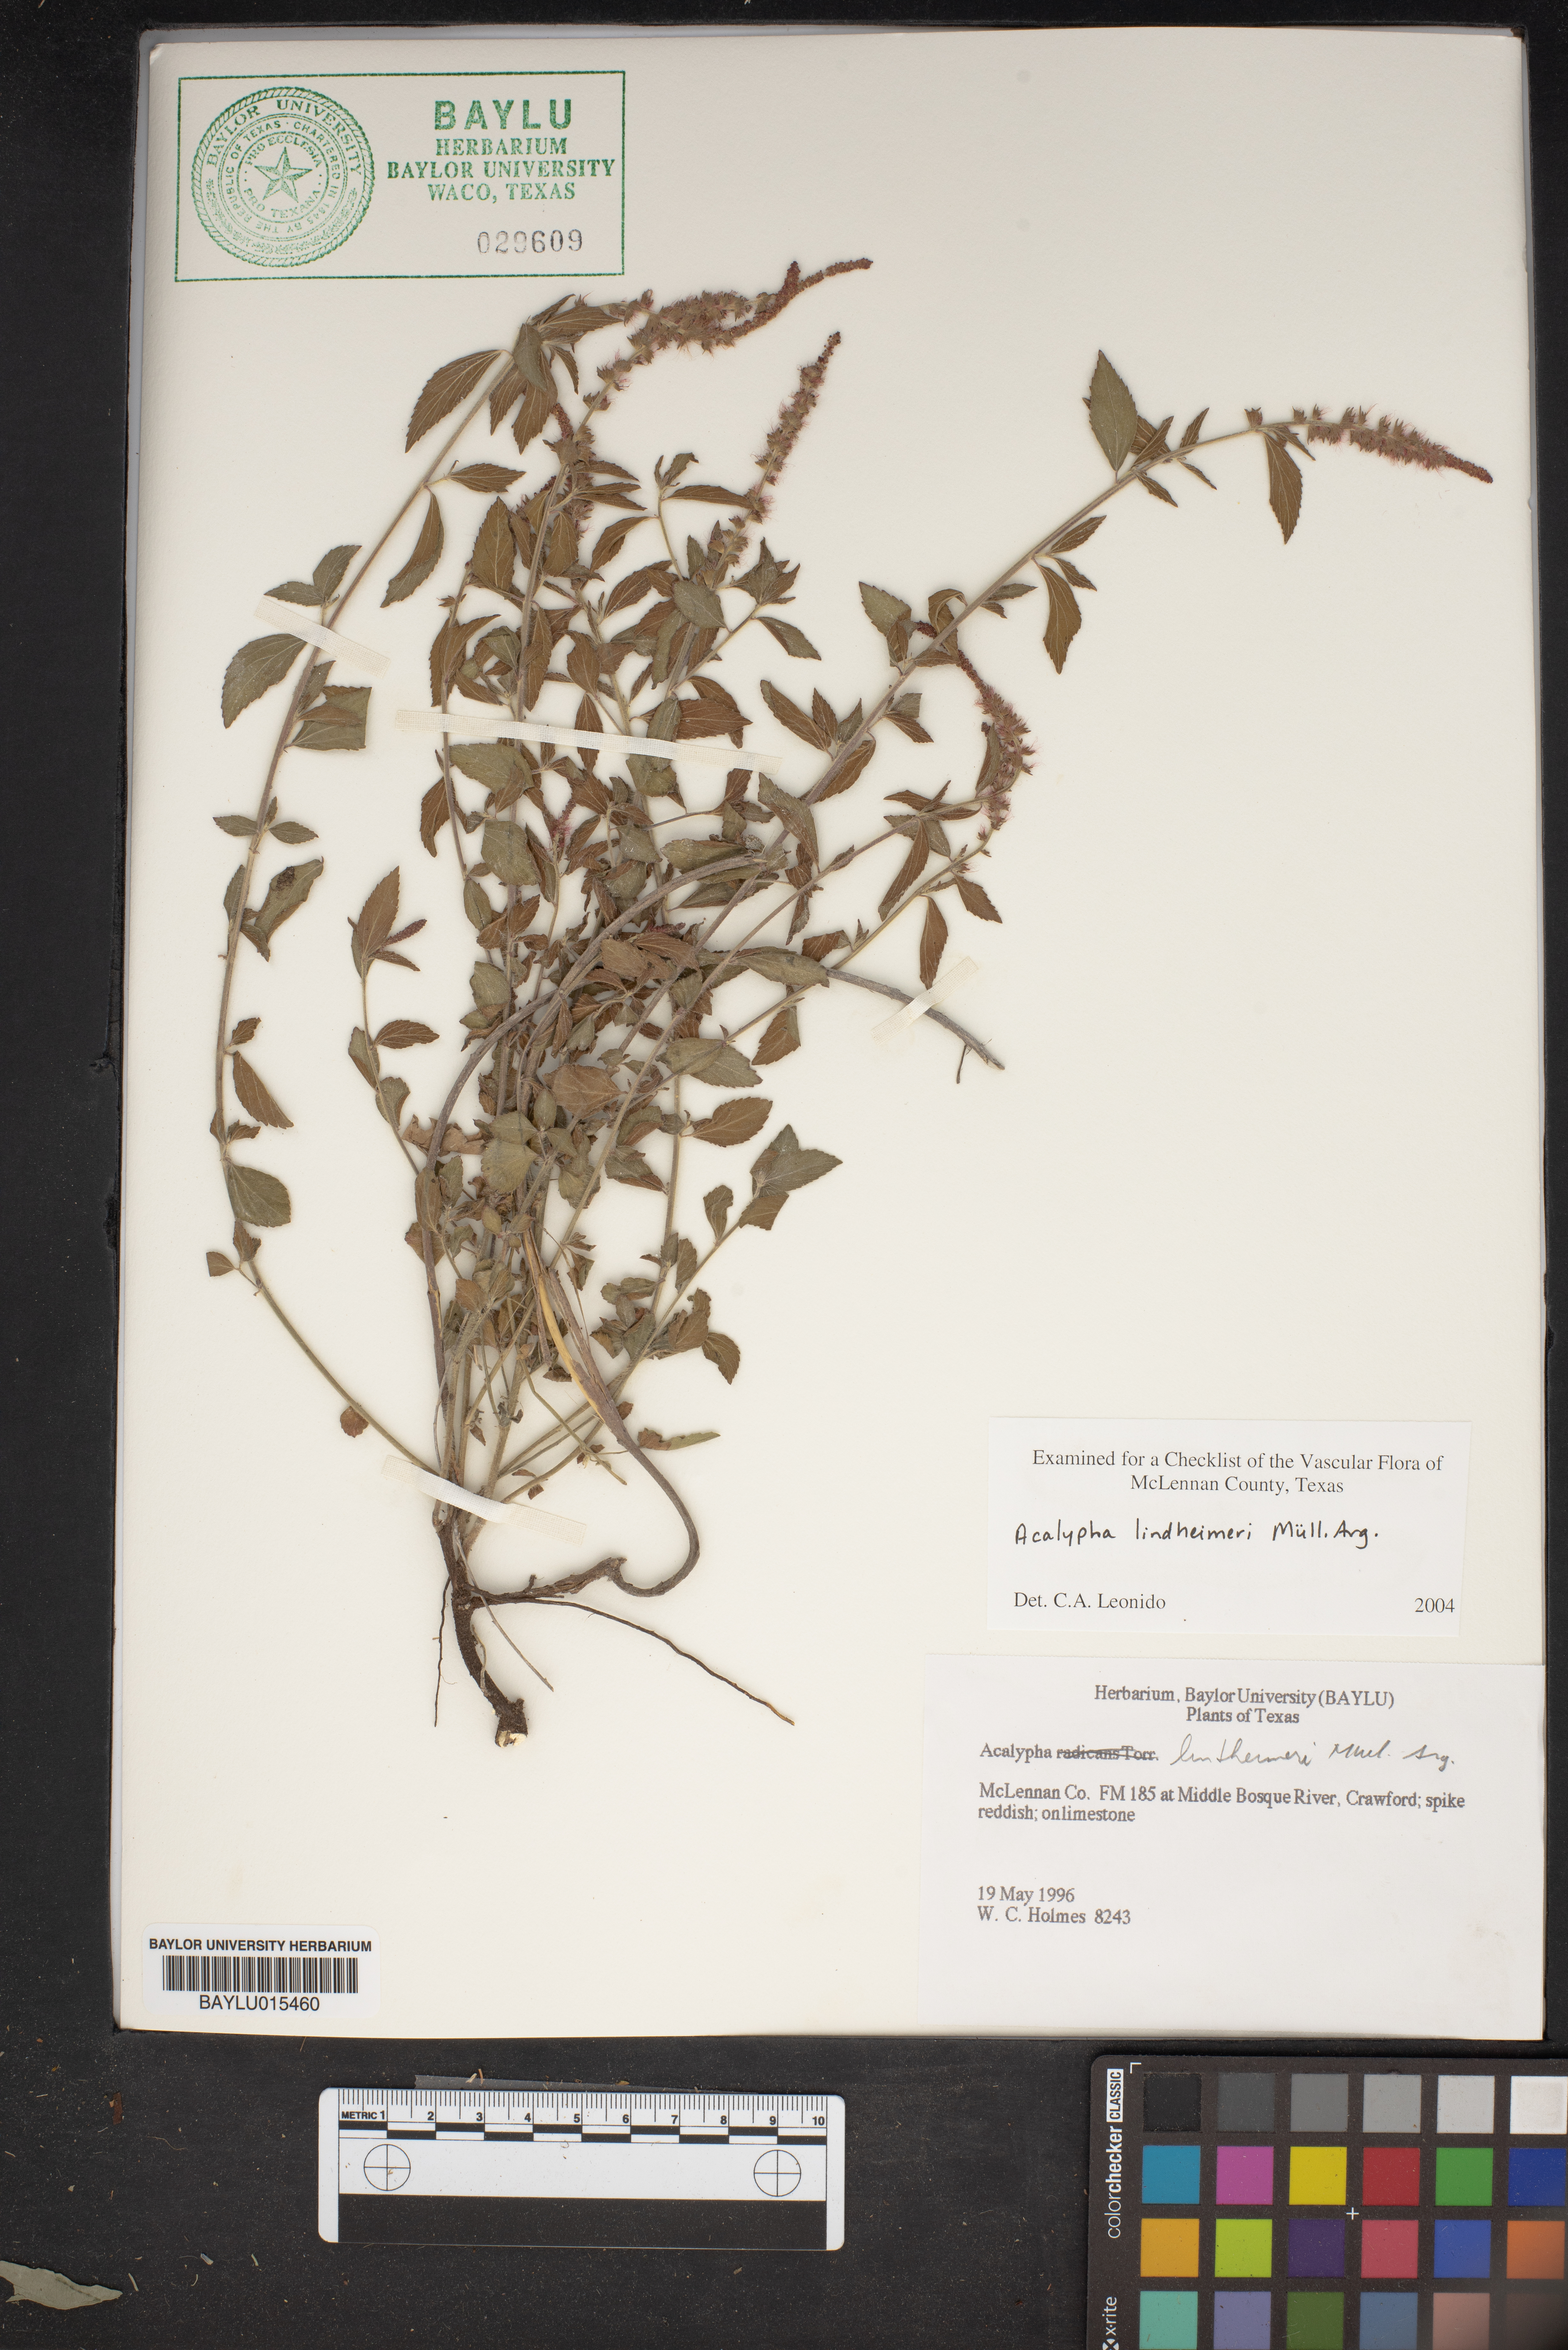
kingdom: Plantae
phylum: Tracheophyta
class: Magnoliopsida
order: Malpighiales
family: Euphorbiaceae
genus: Acalypha
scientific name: Acalypha phleoides
